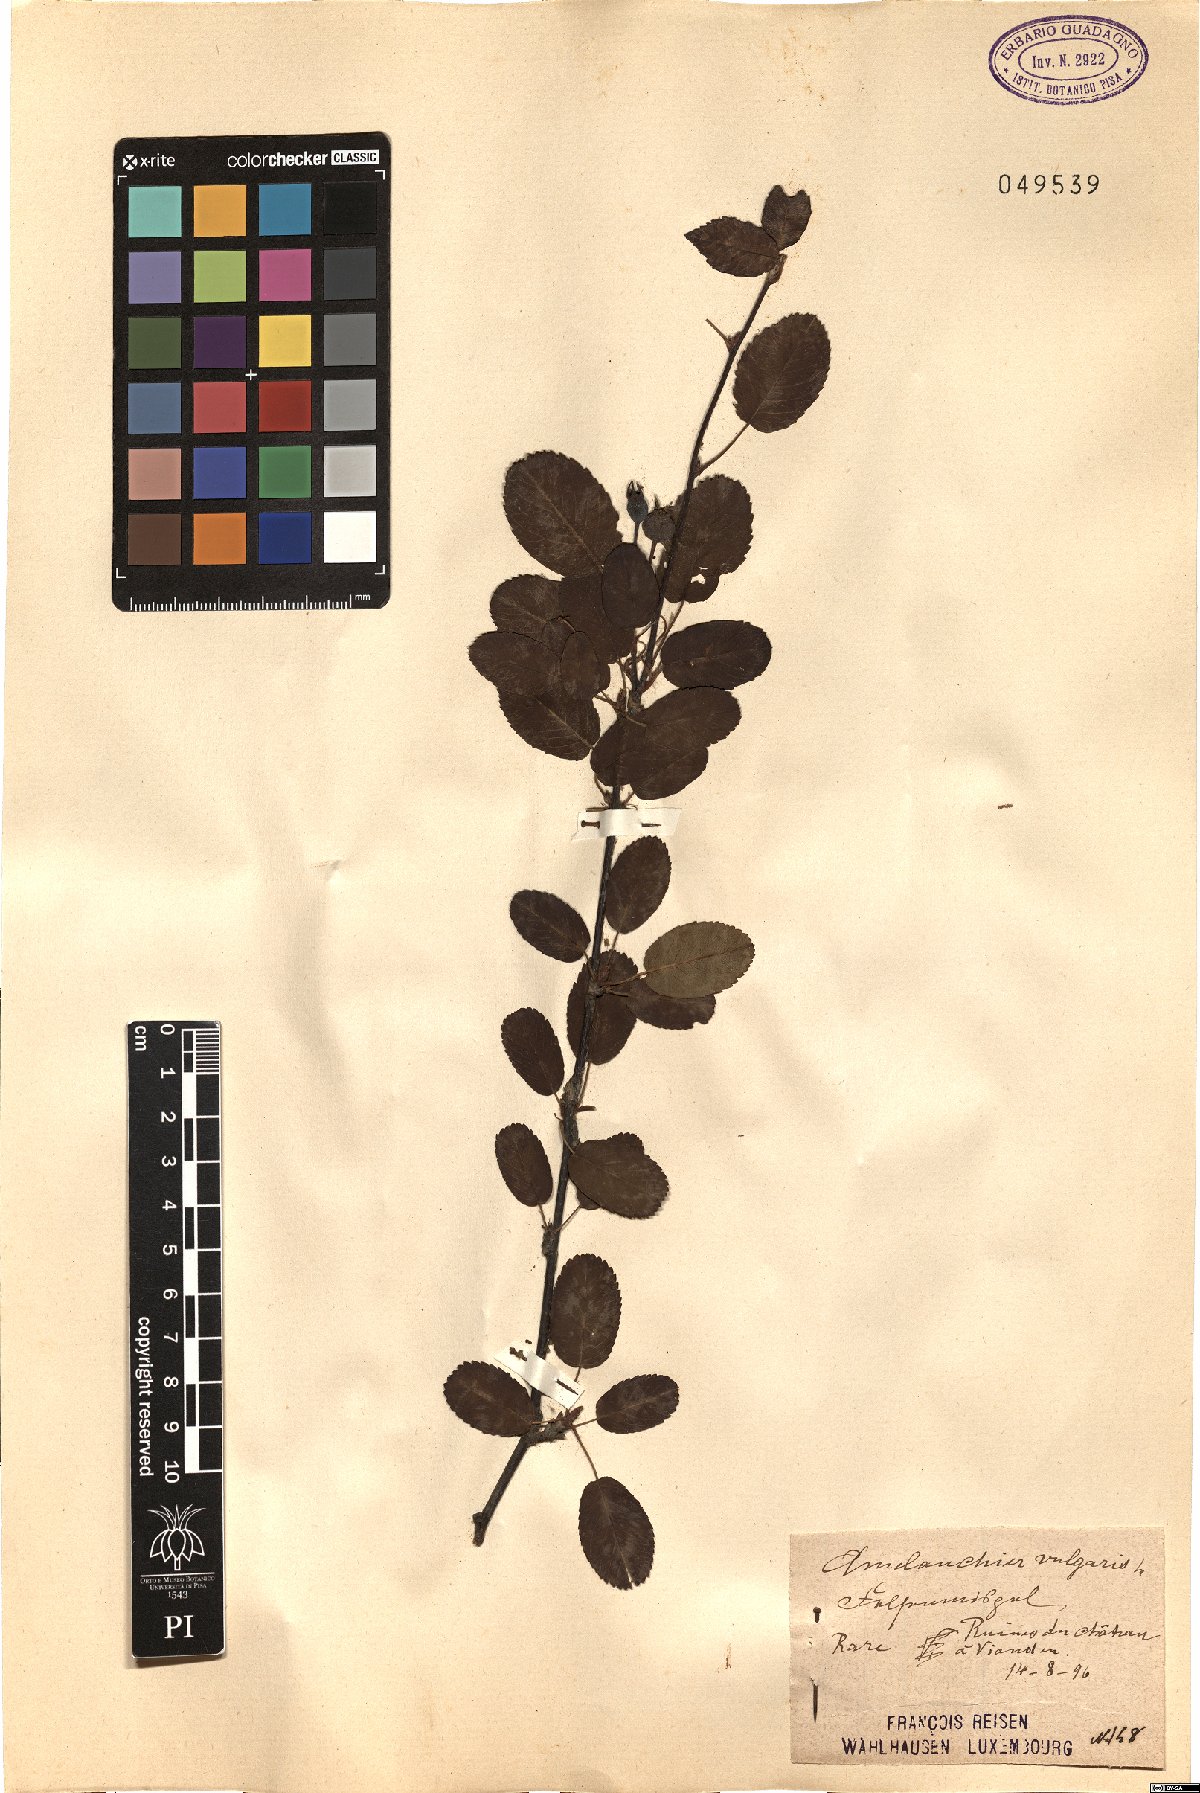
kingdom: Plantae
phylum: Tracheophyta
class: Magnoliopsida
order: Rosales
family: Rosaceae
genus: Amelanchier
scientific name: Amelanchier ovalis
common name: Serviceberry
